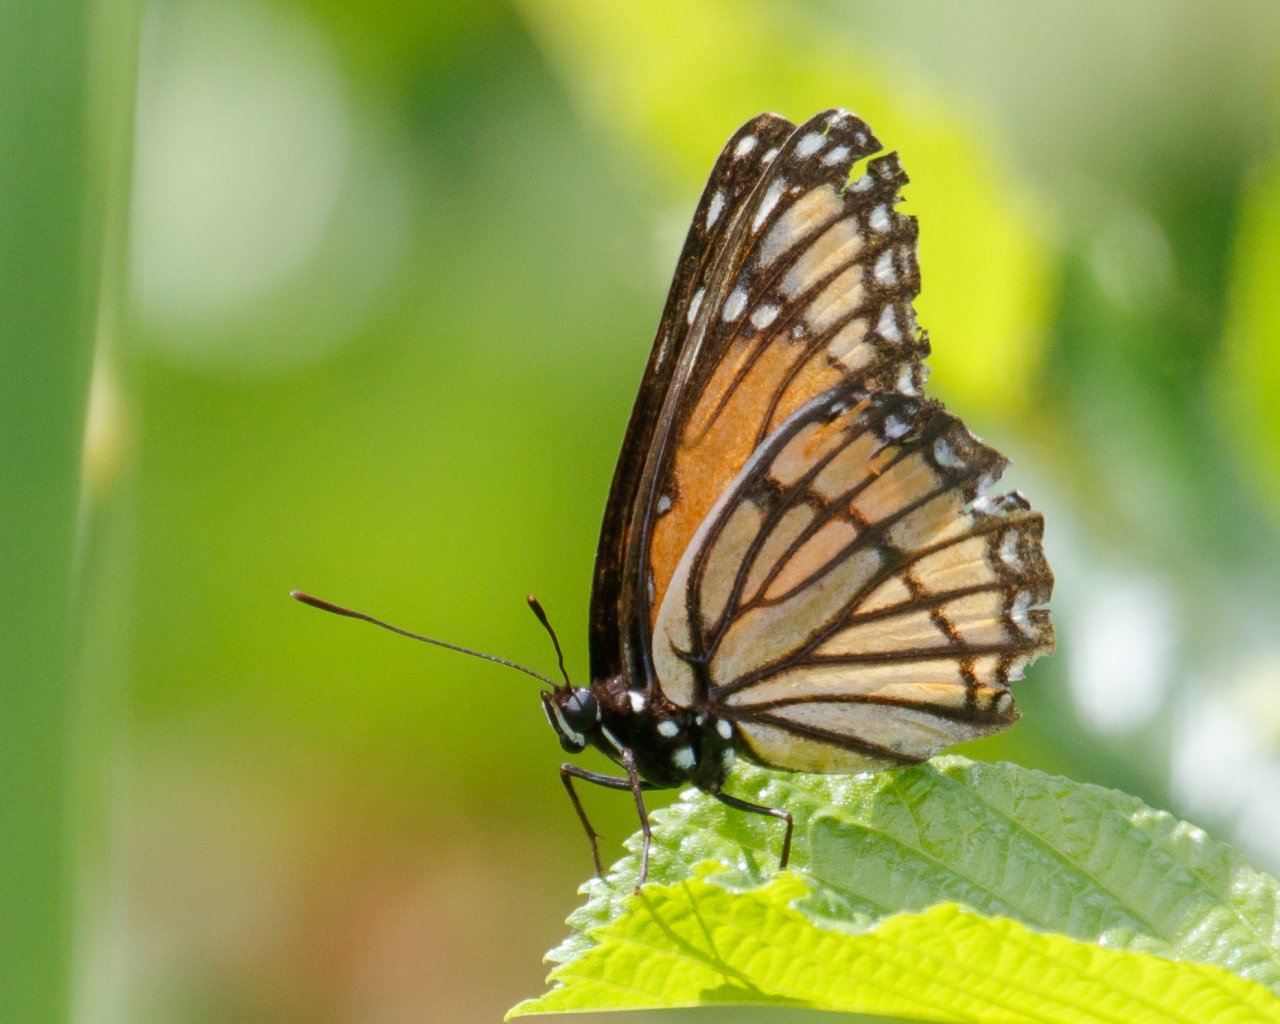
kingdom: Animalia
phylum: Arthropoda
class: Insecta
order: Lepidoptera
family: Nymphalidae
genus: Limenitis
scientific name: Limenitis archippus
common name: Viceroy
